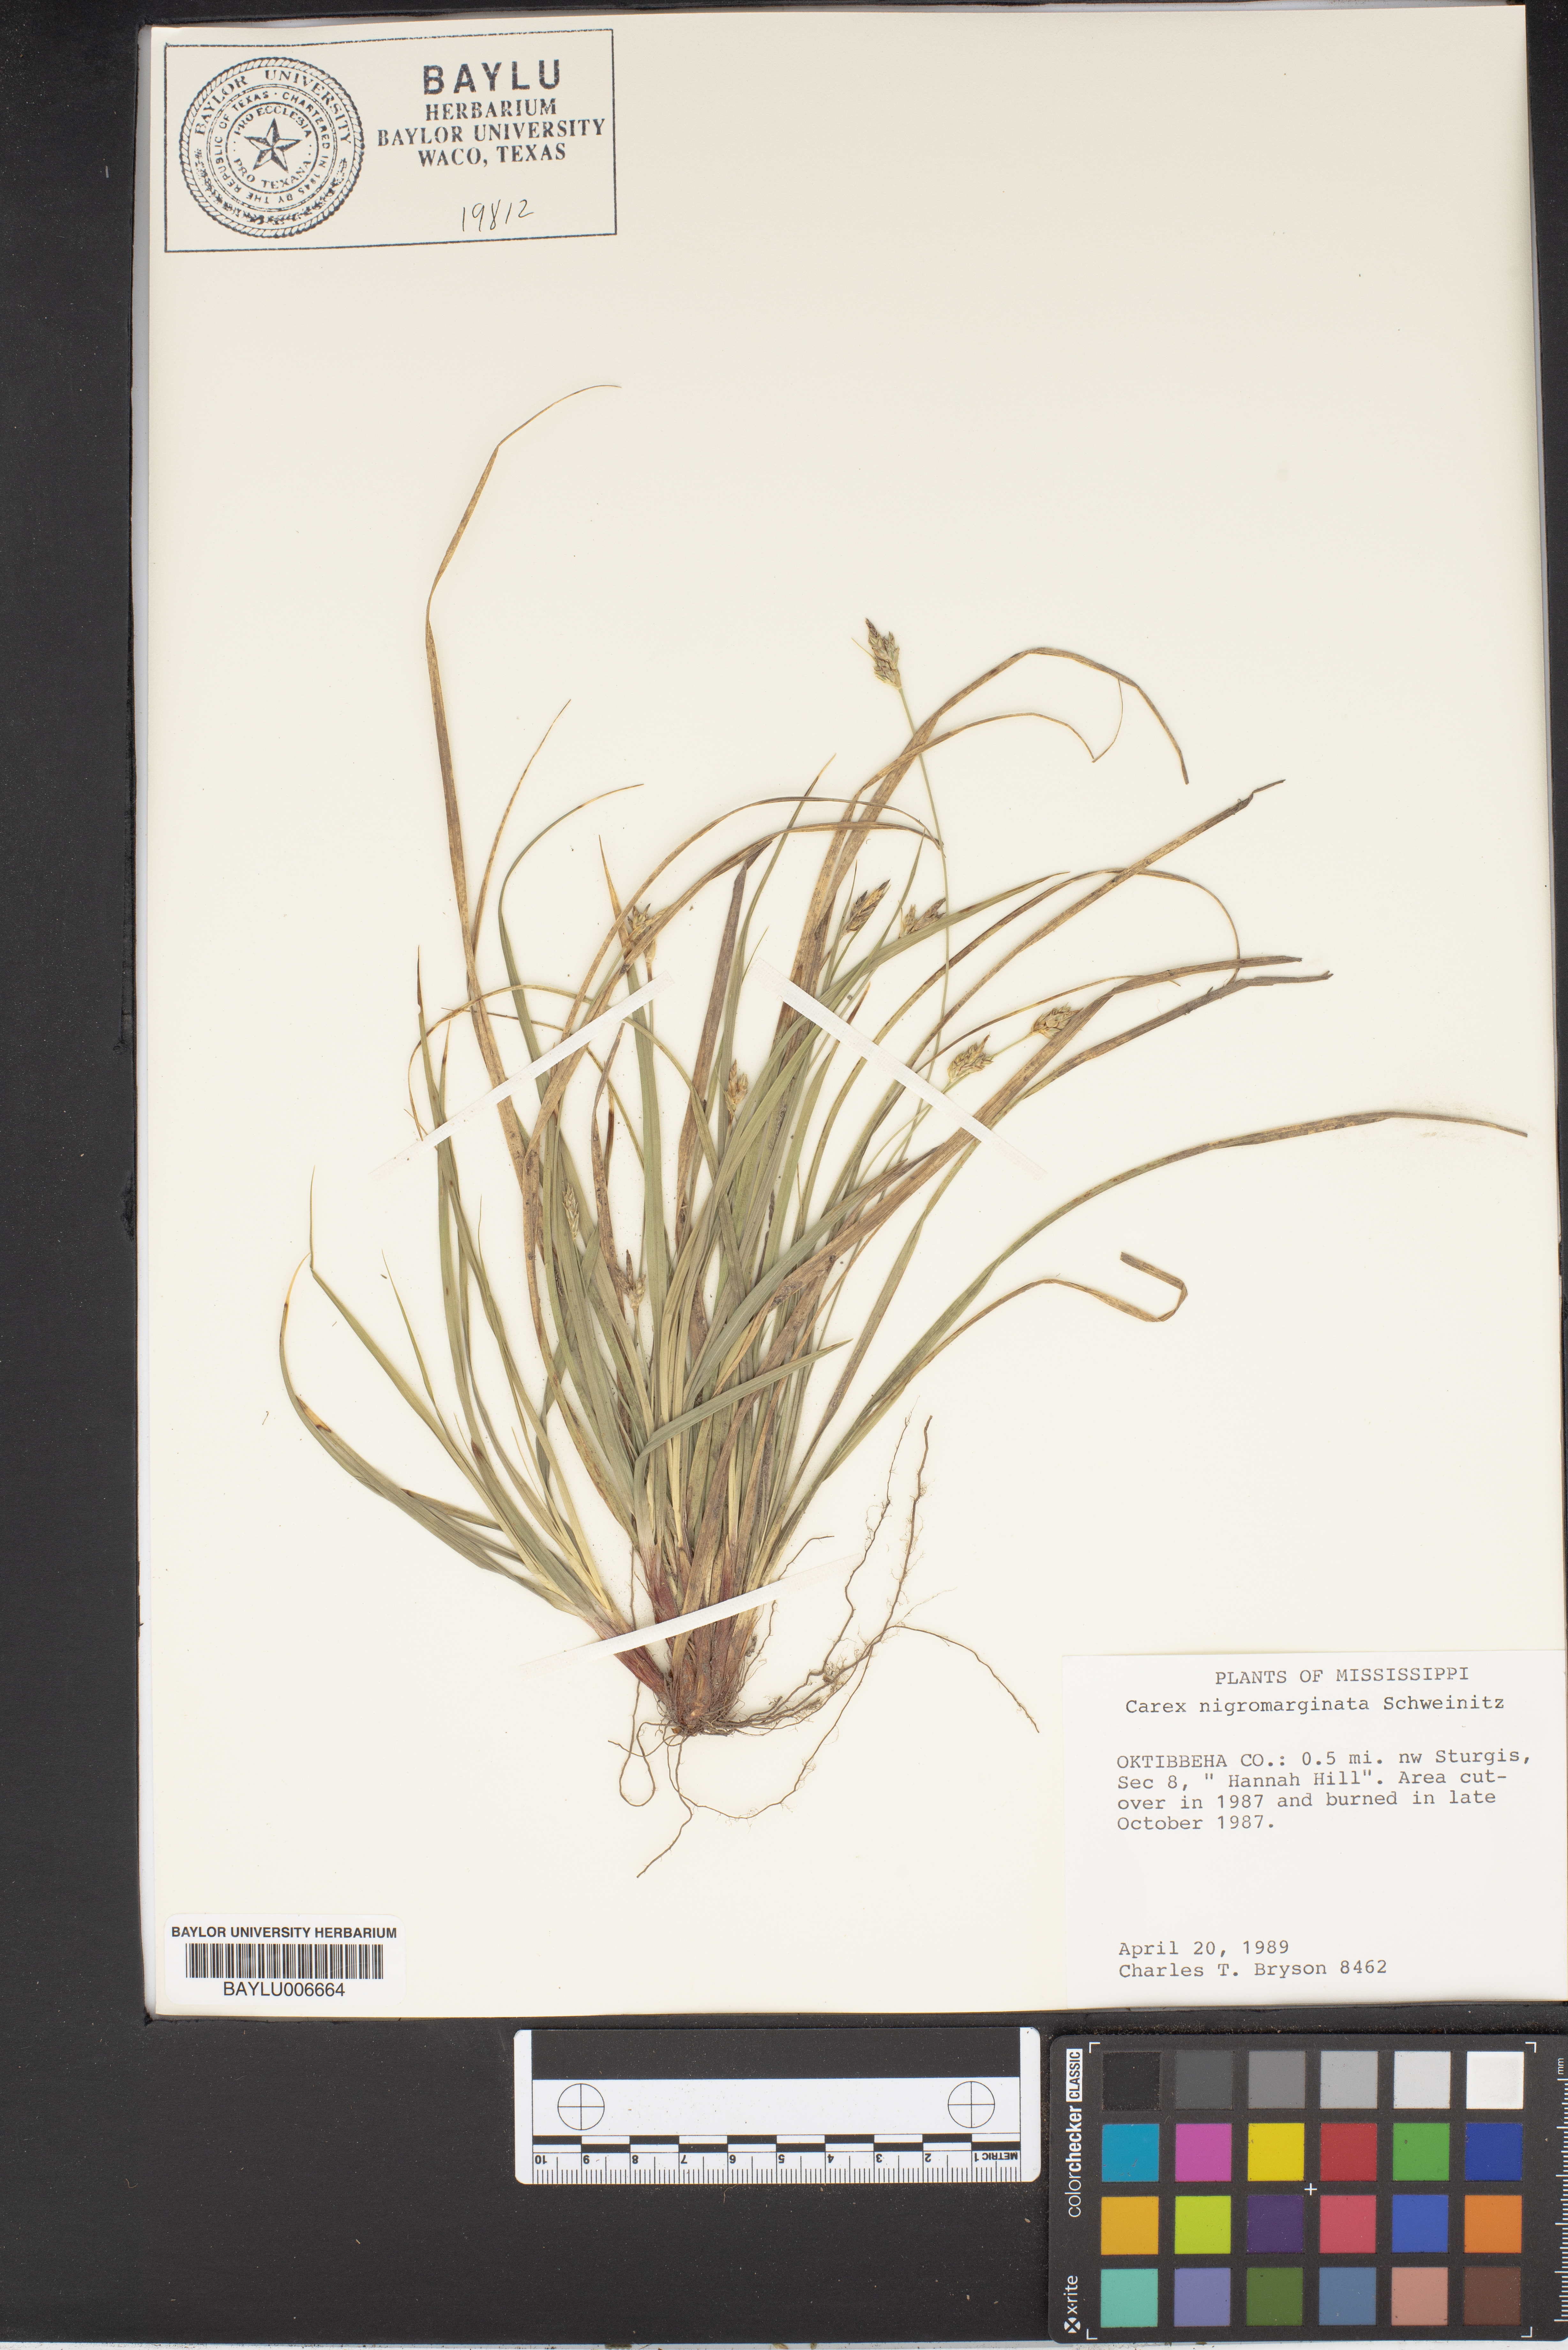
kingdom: Plantae
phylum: Tracheophyta
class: Liliopsida
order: Poales
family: Cyperaceae
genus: Carex
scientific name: Carex nigromarginata
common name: Black-edged sedge
